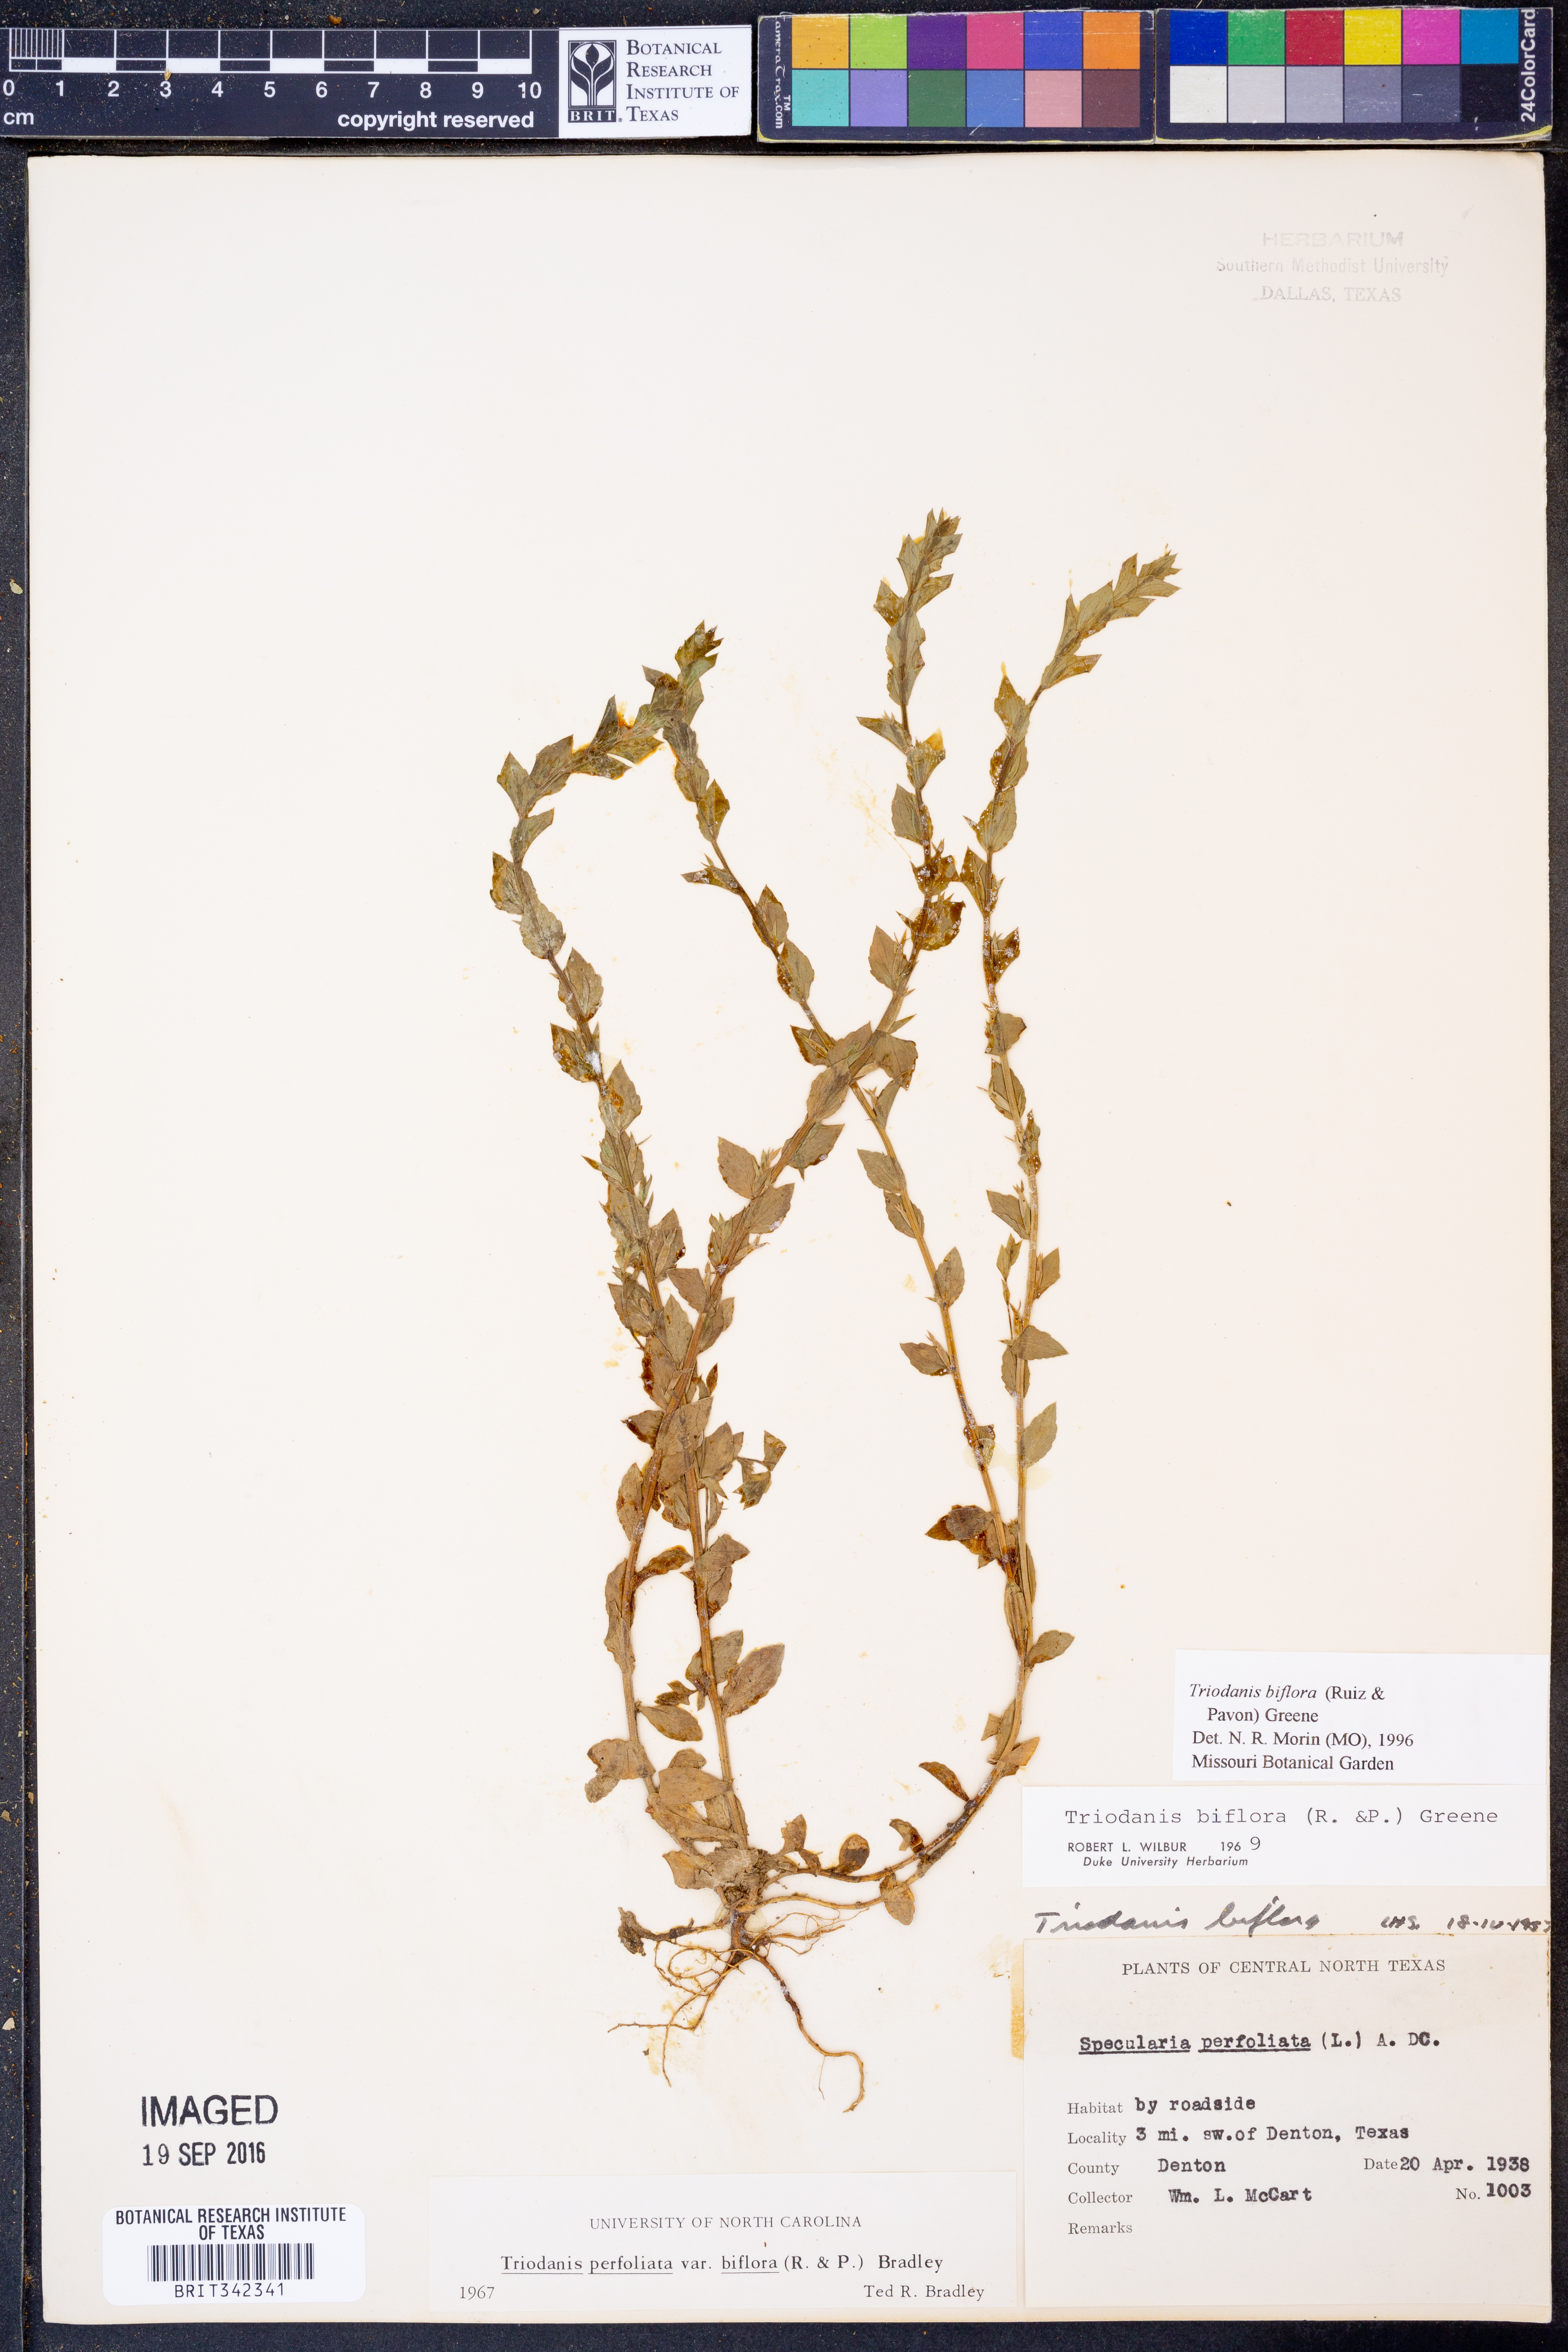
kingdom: Plantae
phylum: Tracheophyta
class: Magnoliopsida
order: Asterales
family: Campanulaceae
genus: Triodanis
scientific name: Triodanis perfoliata
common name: Clasping venus' looking-glass
